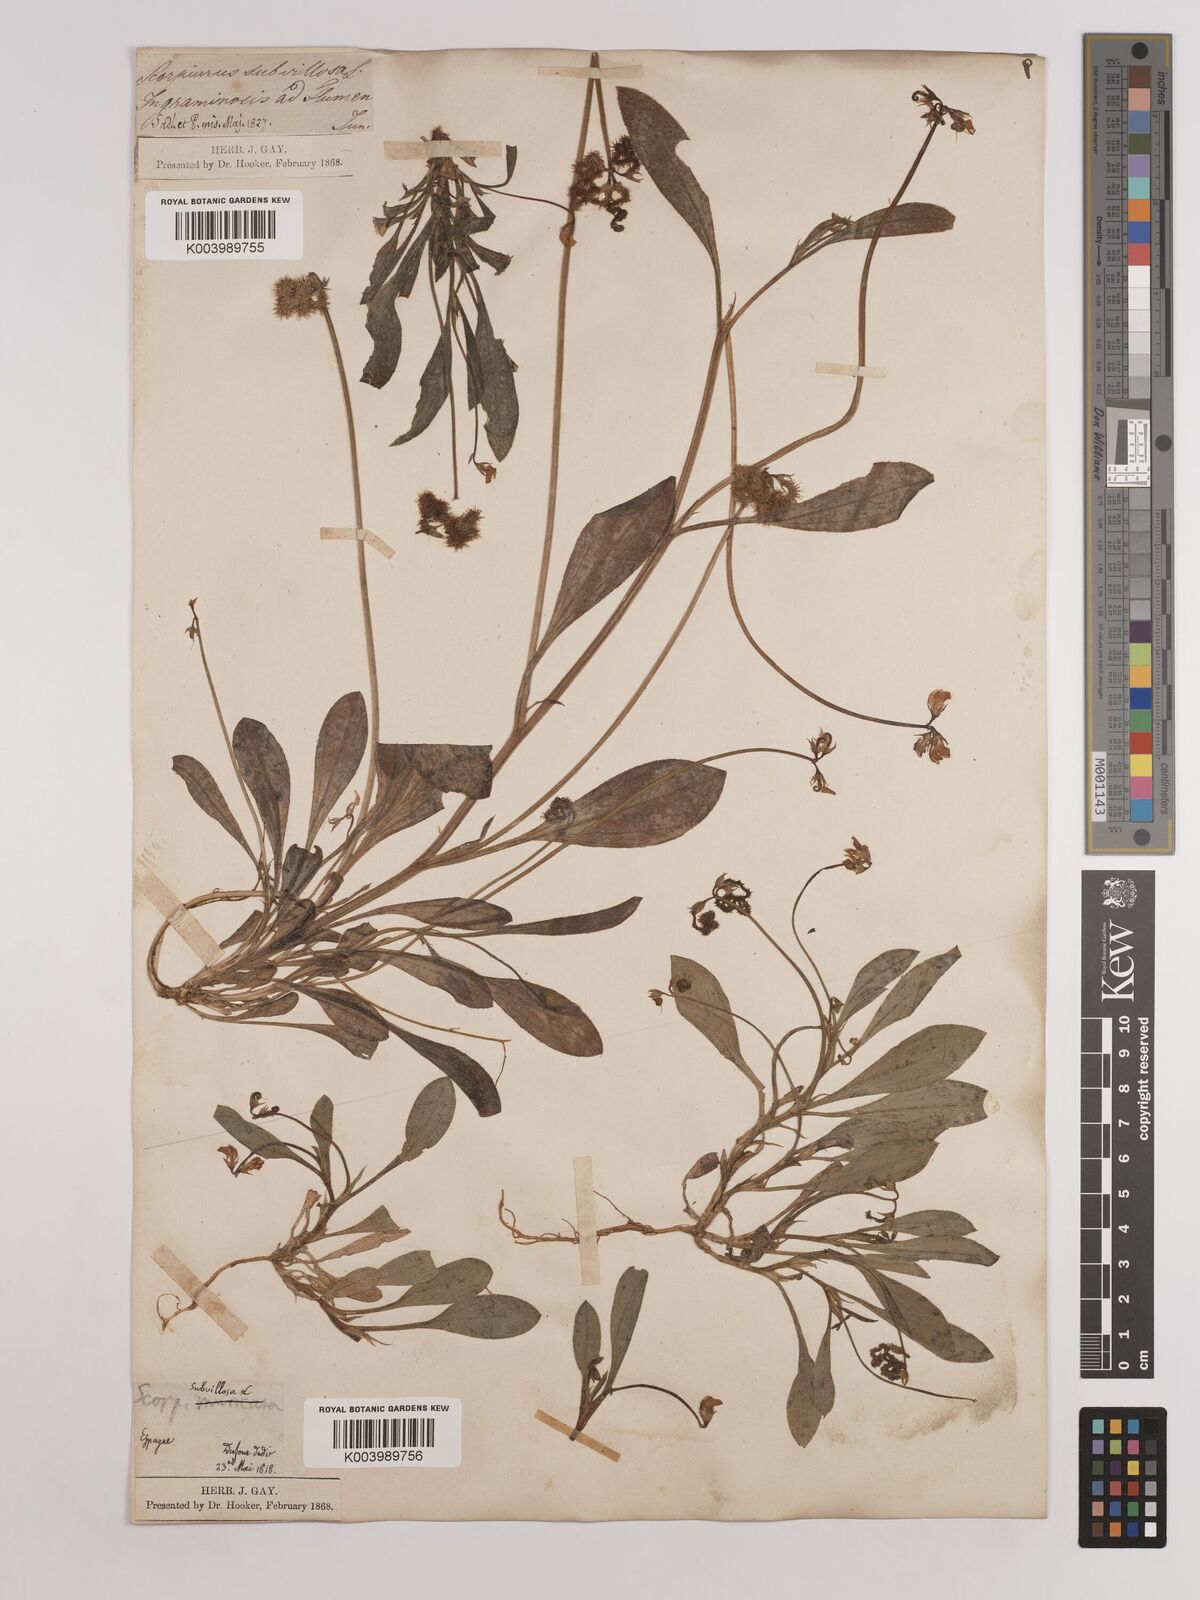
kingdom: Plantae
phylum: Tracheophyta
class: Magnoliopsida
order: Fabales
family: Fabaceae
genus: Scorpiurus
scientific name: Scorpiurus muricatus
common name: Caterpillar-plant
